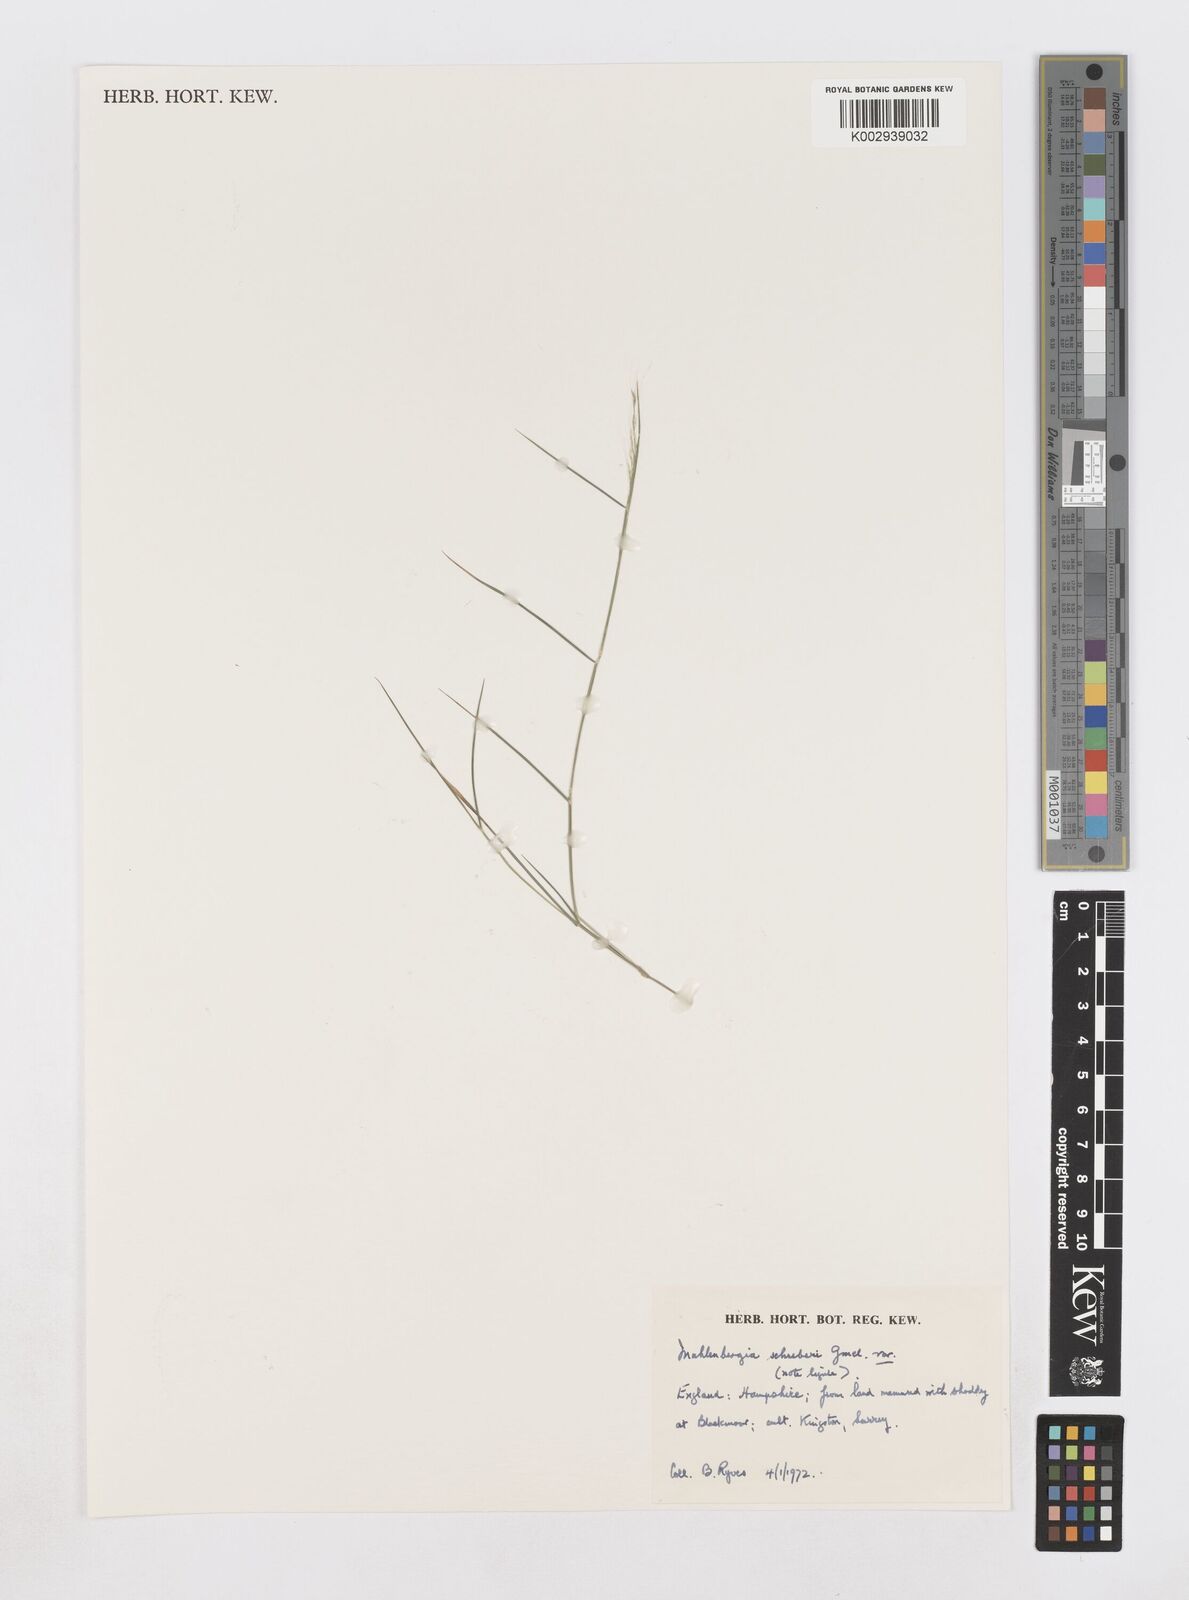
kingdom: Plantae
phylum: Tracheophyta
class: Liliopsida
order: Poales
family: Poaceae
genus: Muhlenbergia
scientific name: Muhlenbergia schreberi
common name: Nimblewill
